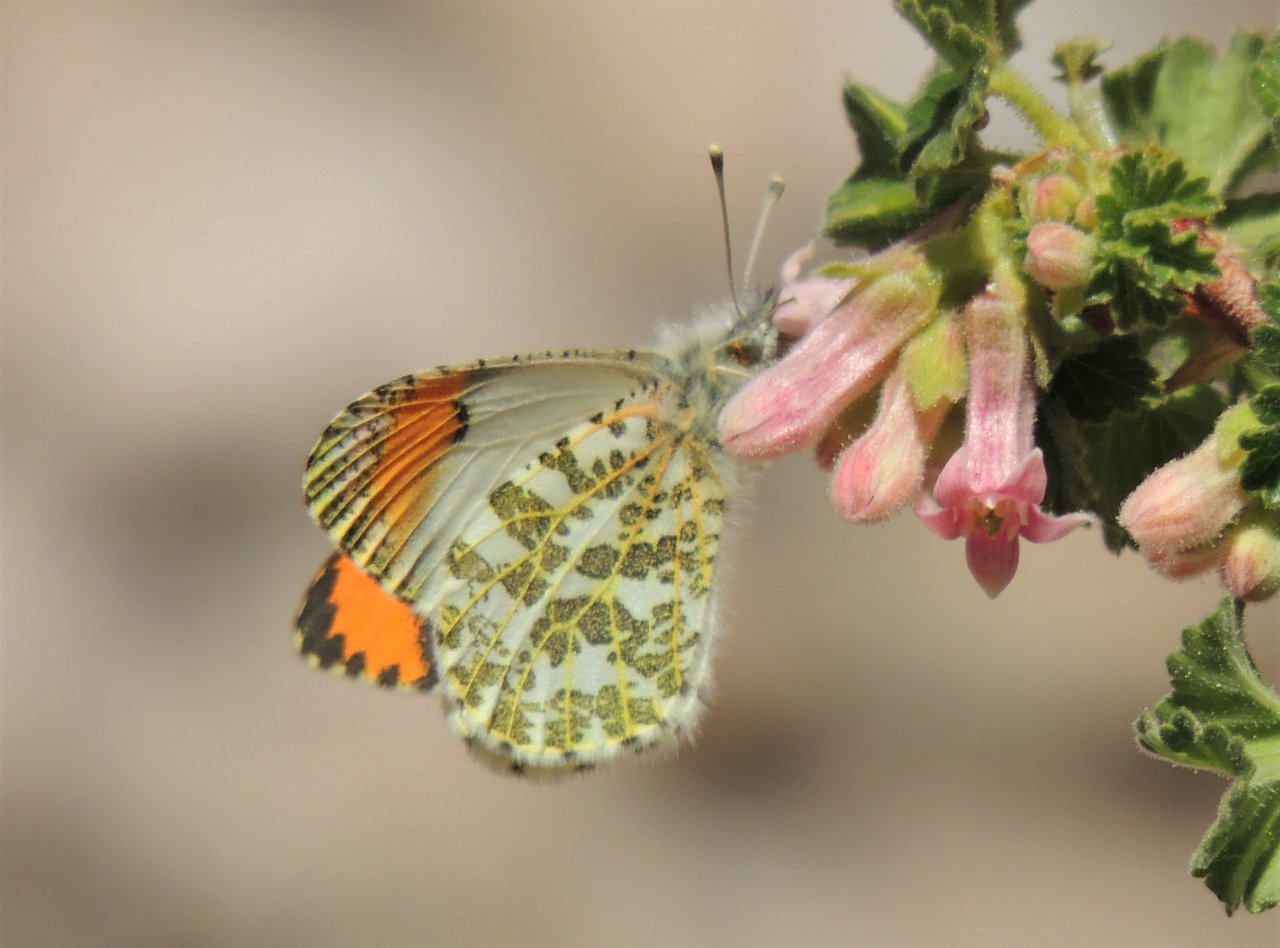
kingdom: Animalia
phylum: Arthropoda
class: Insecta
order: Lepidoptera
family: Pieridae
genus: Anthocharis
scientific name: Anthocharis sara
